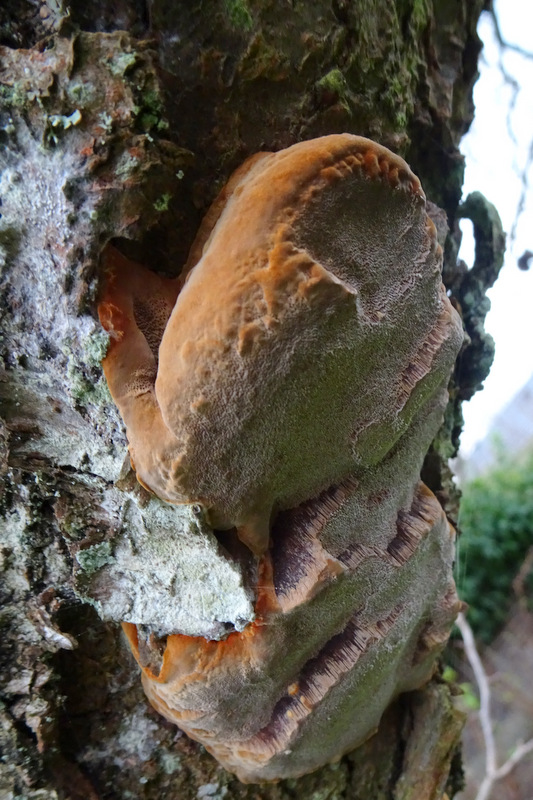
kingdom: Fungi
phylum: Basidiomycota
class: Agaricomycetes
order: Hymenochaetales
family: Hymenochaetaceae
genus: Phellinus
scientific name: Phellinus pomaceus
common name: blomme-ildporesvamp
